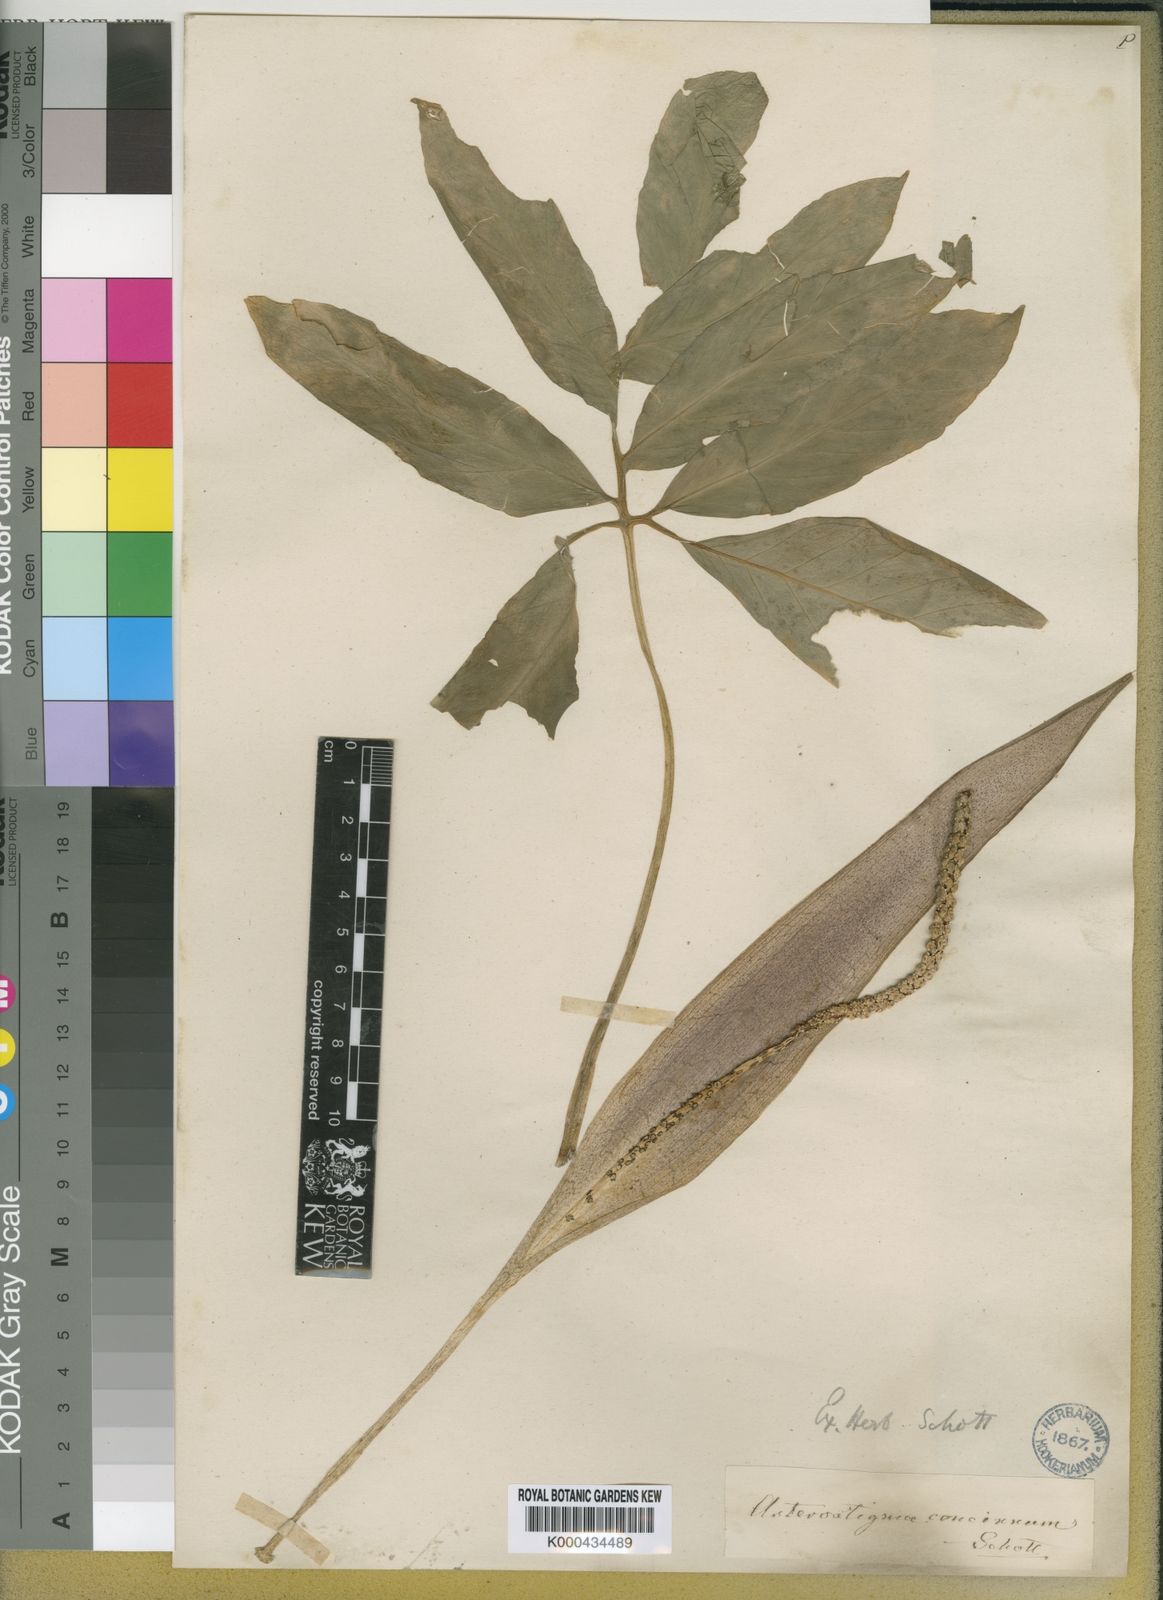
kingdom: Plantae
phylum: Tracheophyta
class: Liliopsida
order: Alismatales
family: Araceae
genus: Asterostigma
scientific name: Asterostigma luridum
